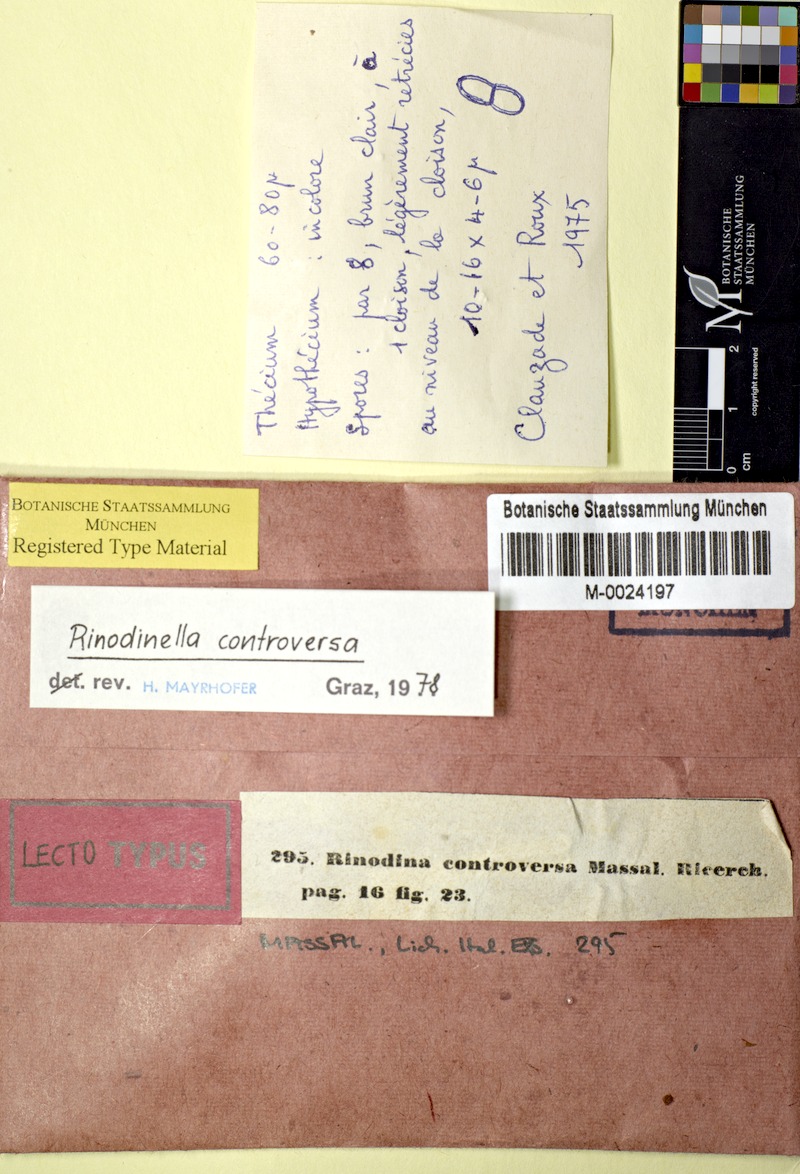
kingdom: Fungi
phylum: Ascomycota
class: Lecanoromycetes
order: Caliciales
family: Physciaceae
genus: Rinodinella
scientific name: Rinodinella controversa
